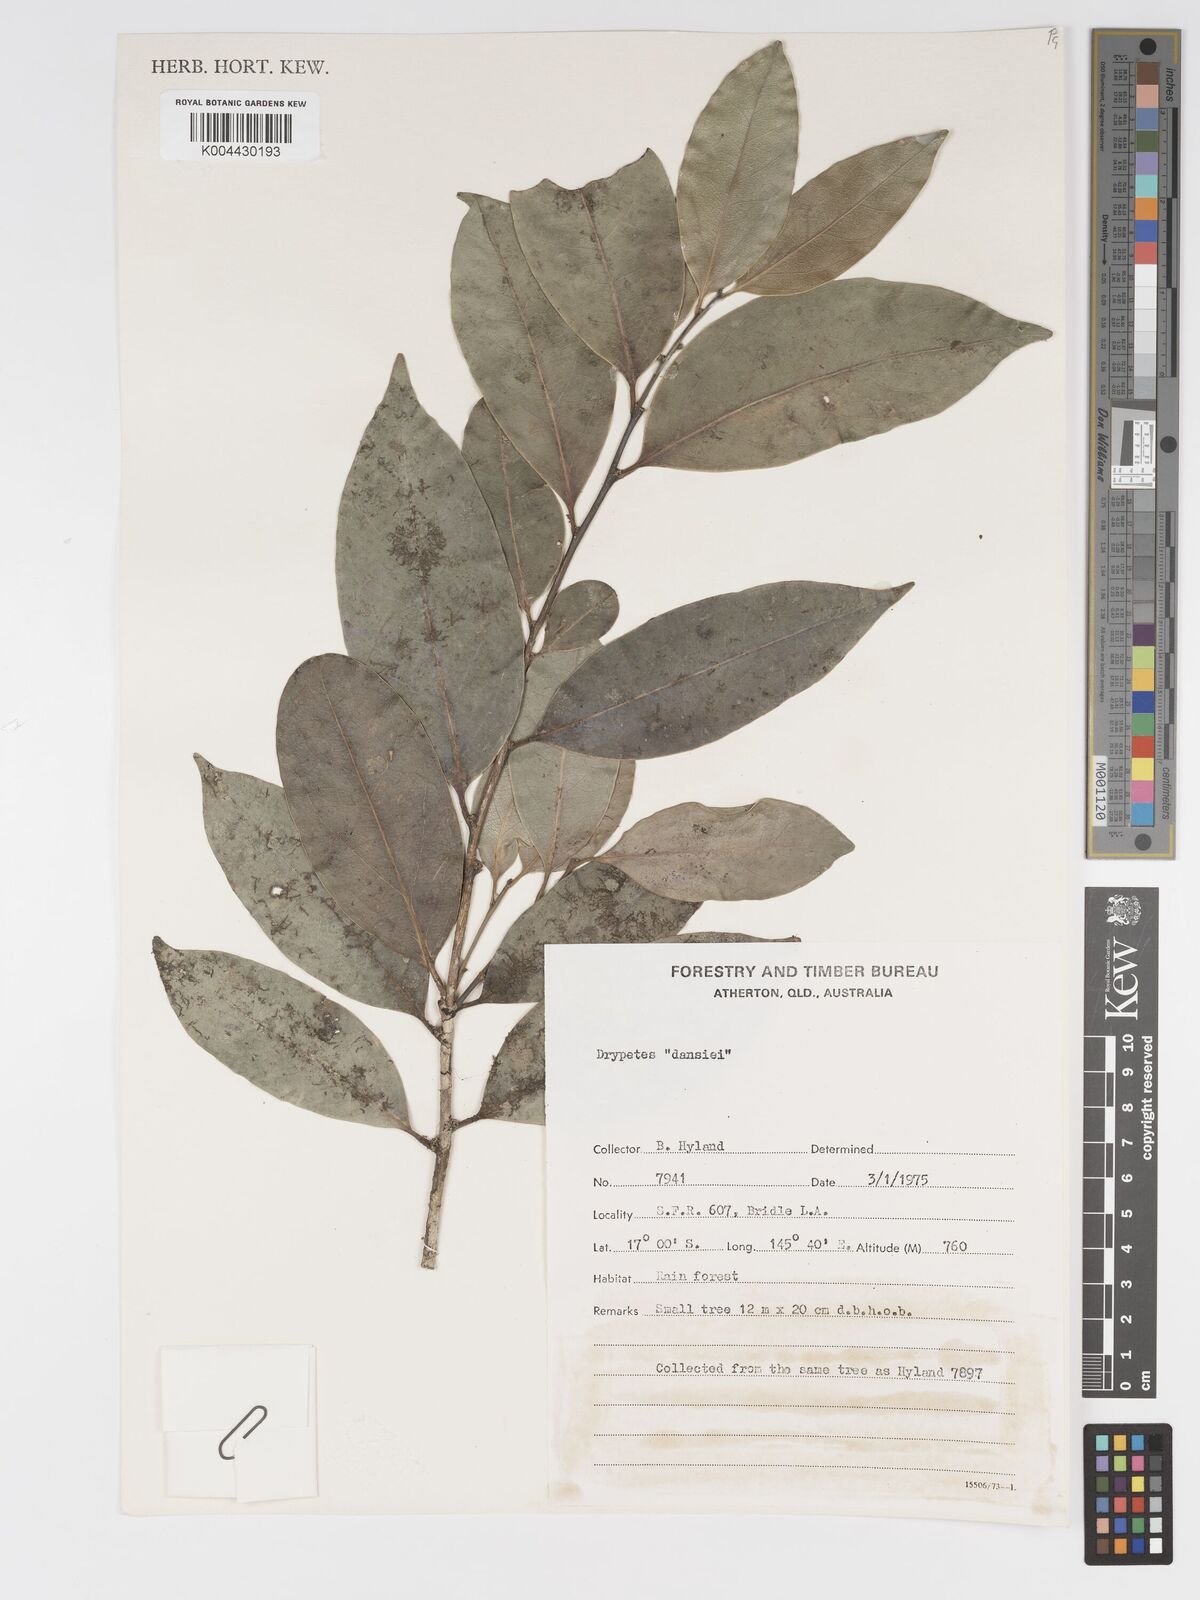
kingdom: Plantae
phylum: Tracheophyta
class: Magnoliopsida
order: Malpighiales
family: Putranjivaceae
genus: Drypetes
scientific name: Drypetes subcubica
